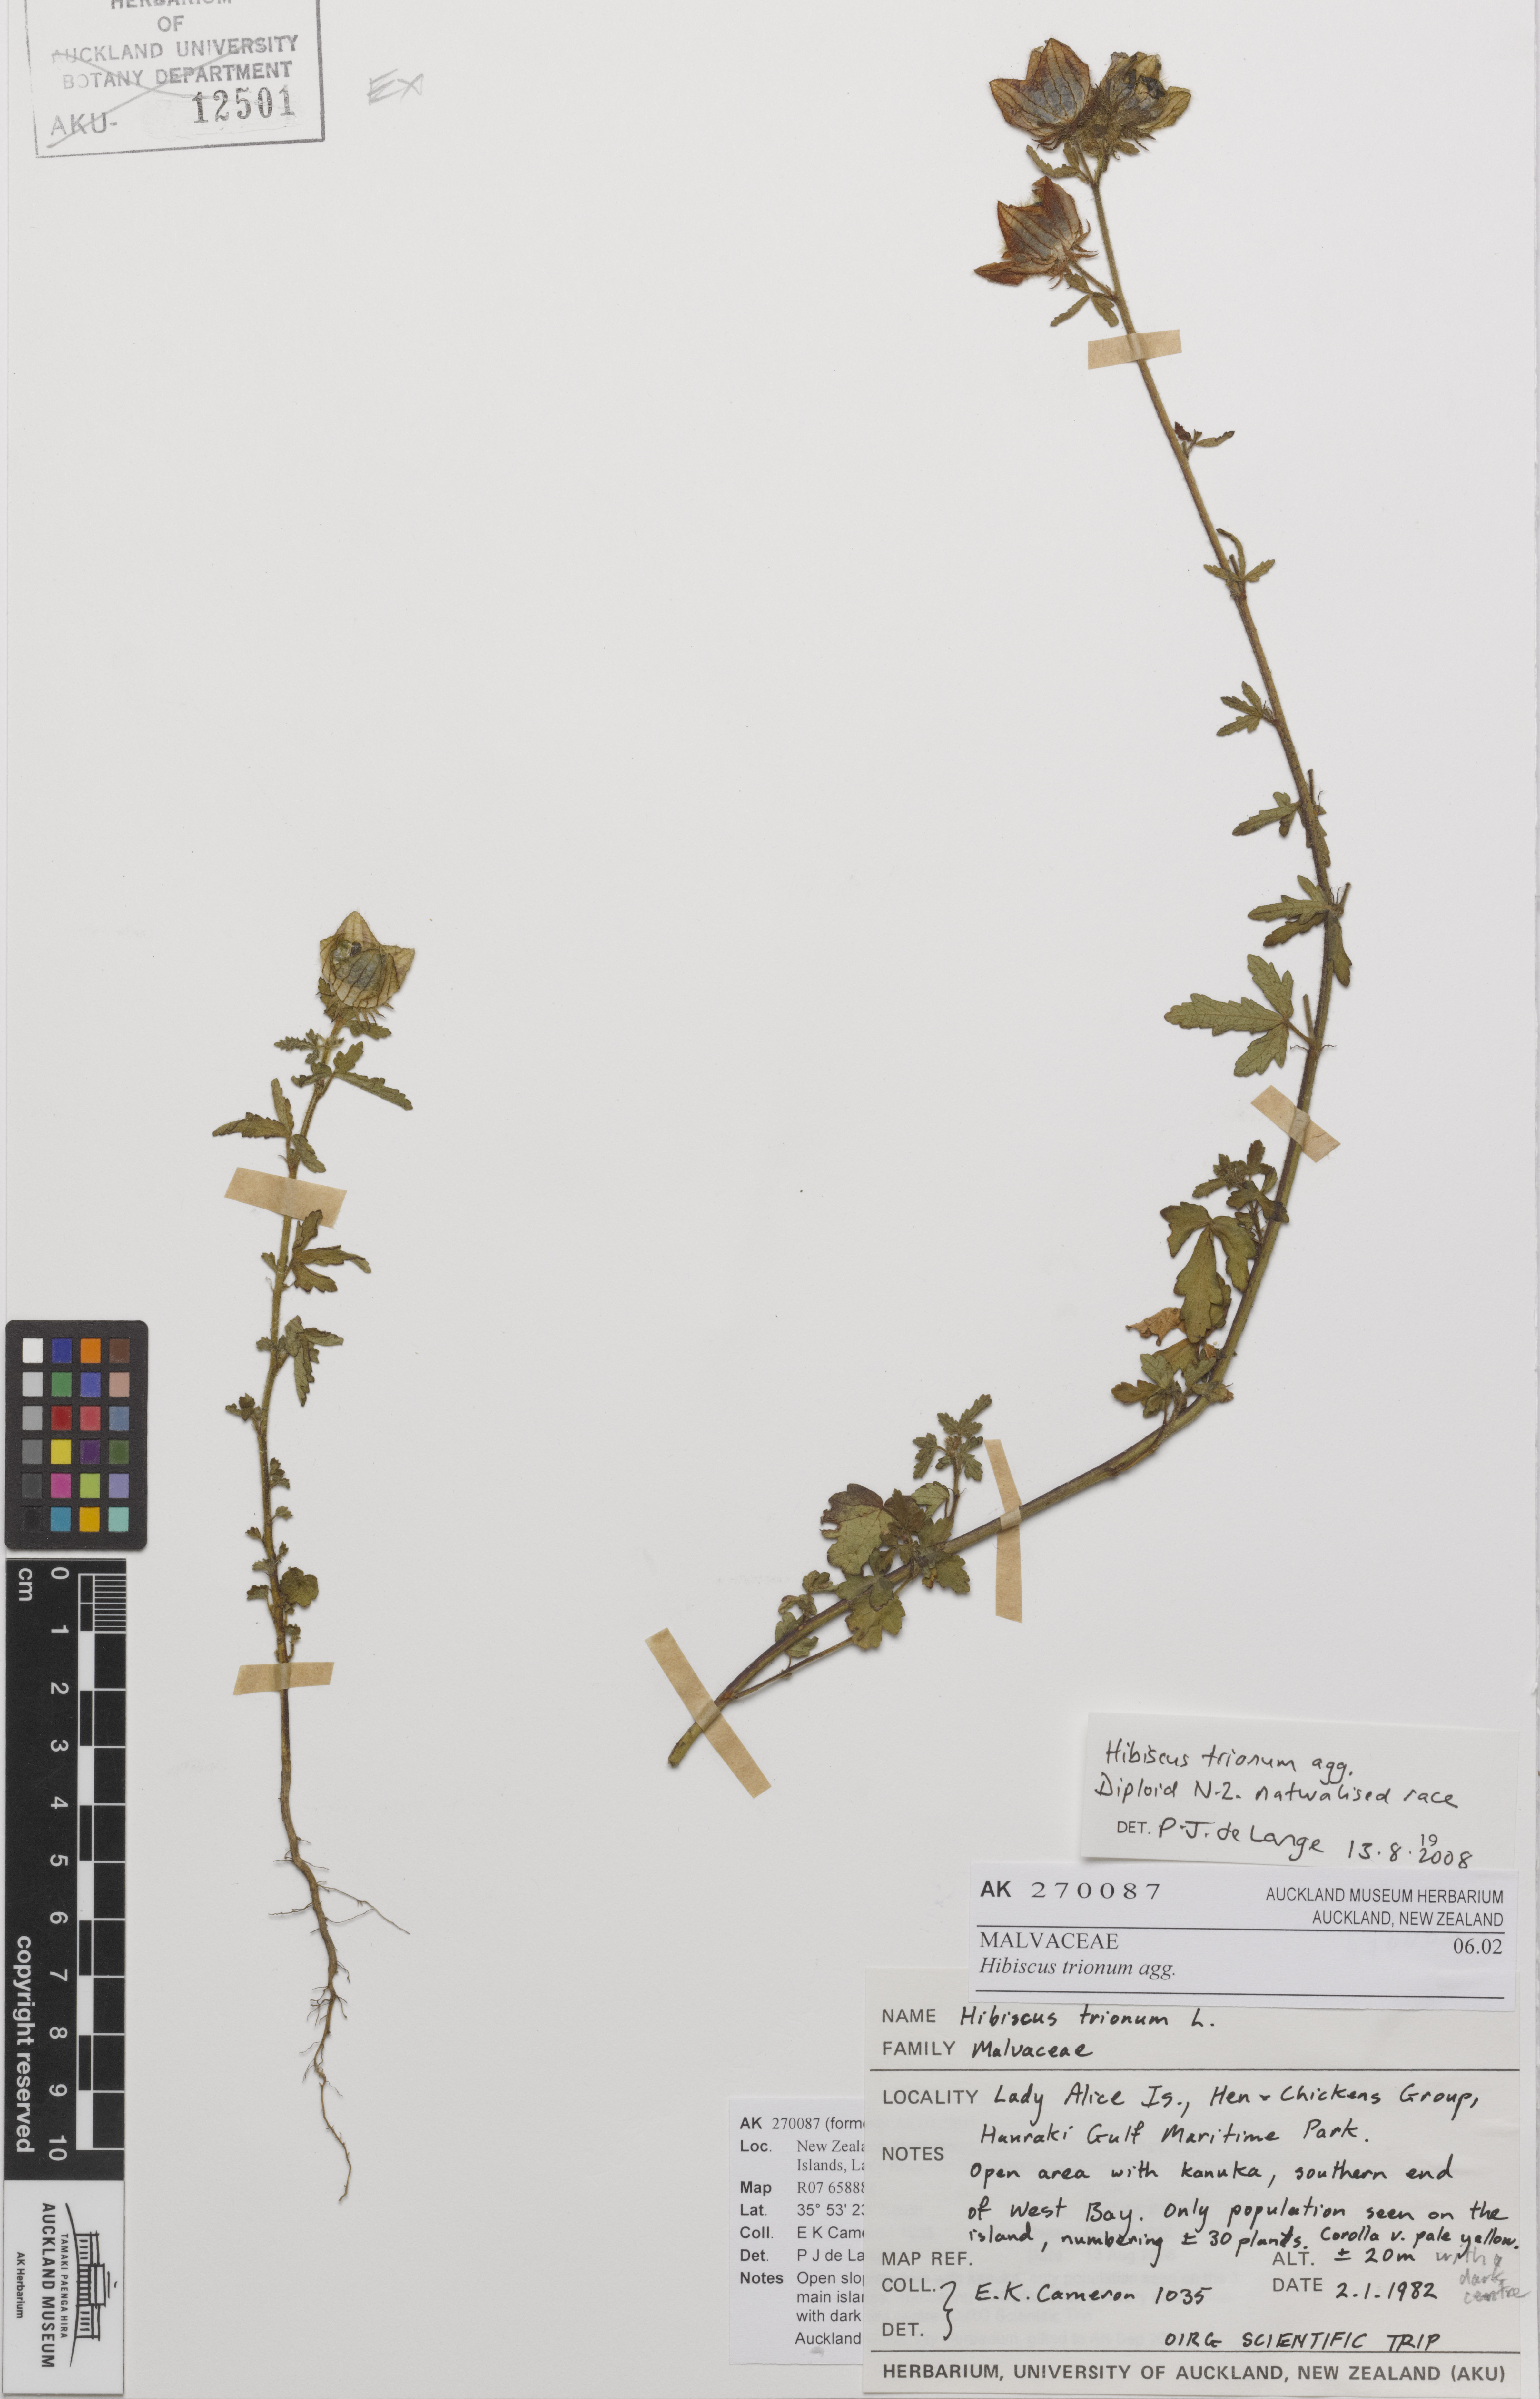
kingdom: Plantae
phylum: Tracheophyta
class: Magnoliopsida
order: Malvales
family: Malvaceae
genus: Hibiscus
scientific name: Hibiscus trionum
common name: Bladder ketmia
